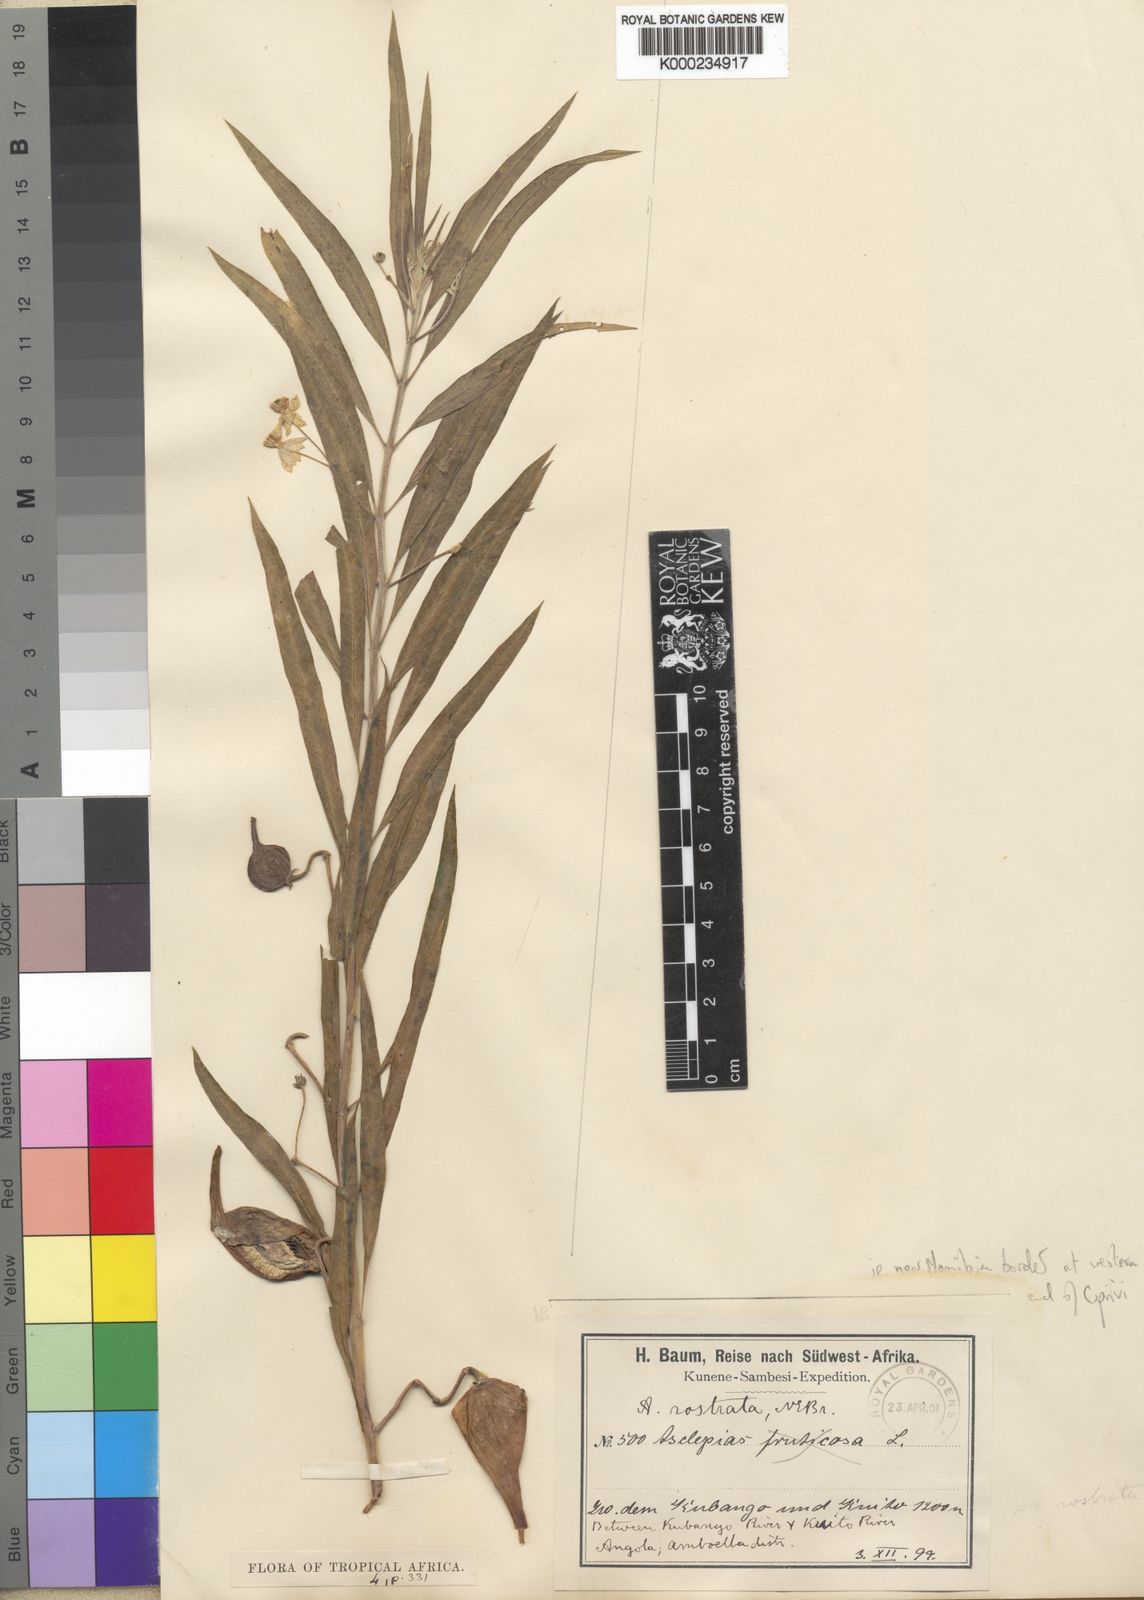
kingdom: Plantae
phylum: Tracheophyta
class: Magnoliopsida
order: Gentianales
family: Apocynaceae
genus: Gomphocarpus
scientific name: Gomphocarpus fruticosus
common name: Milkweed
